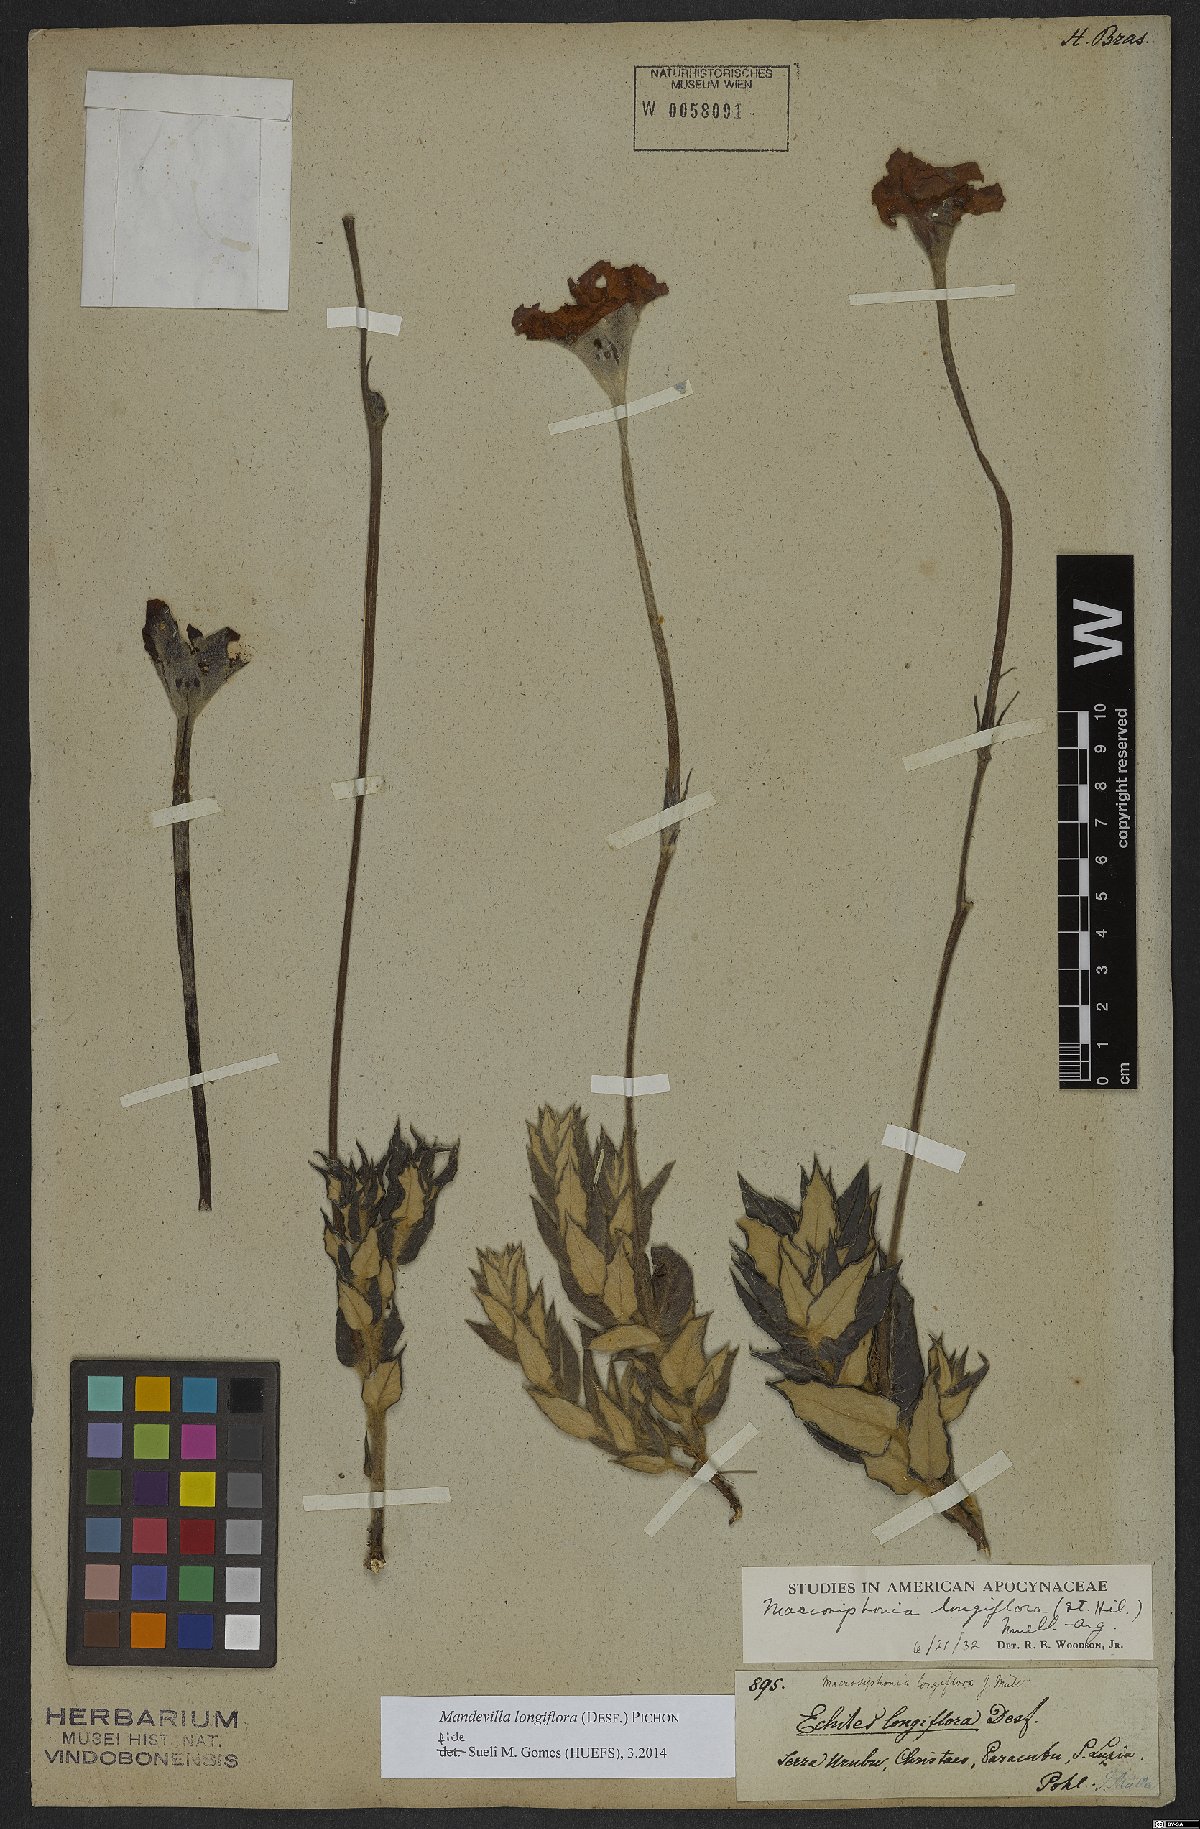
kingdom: Plantae
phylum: Tracheophyta
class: Magnoliopsida
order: Gentianales
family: Apocynaceae
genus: Mandevilla
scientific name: Mandevilla longiflora
